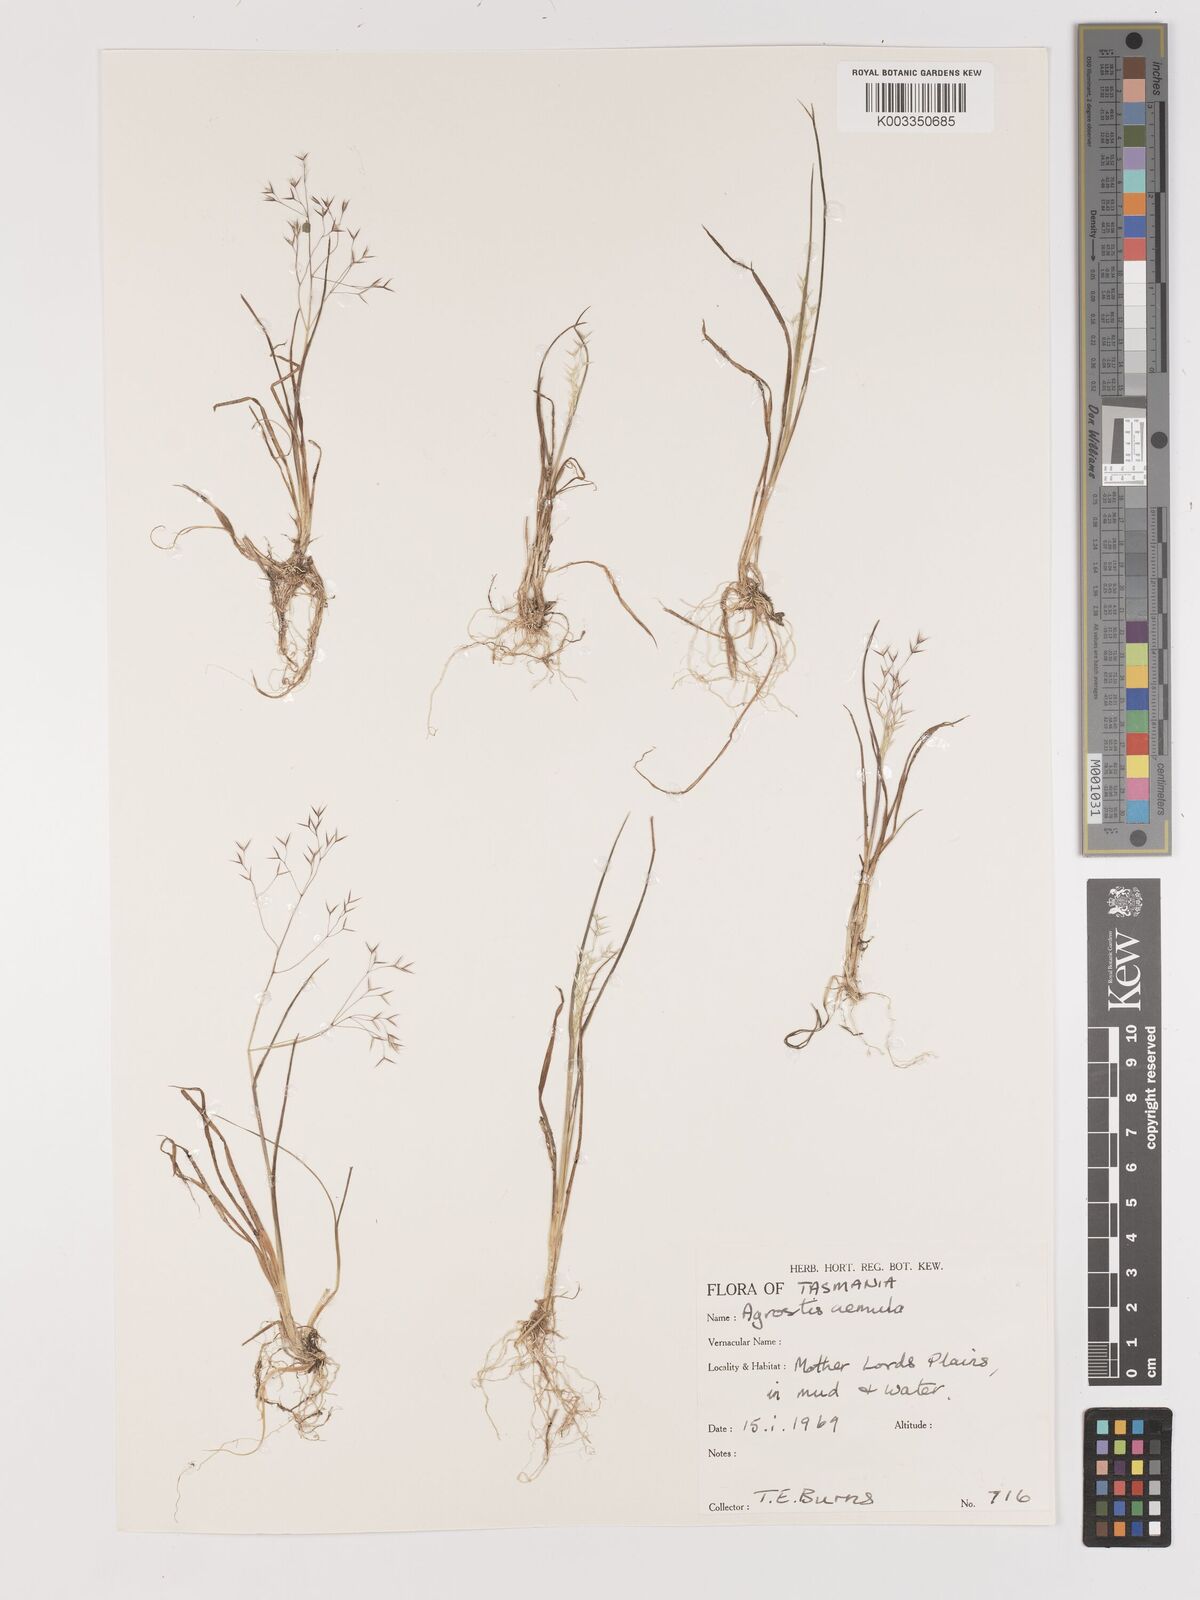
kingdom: Plantae
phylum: Tracheophyta
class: Liliopsida
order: Poales
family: Poaceae
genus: Lachnagrostis
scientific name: Lachnagrostis aemula
